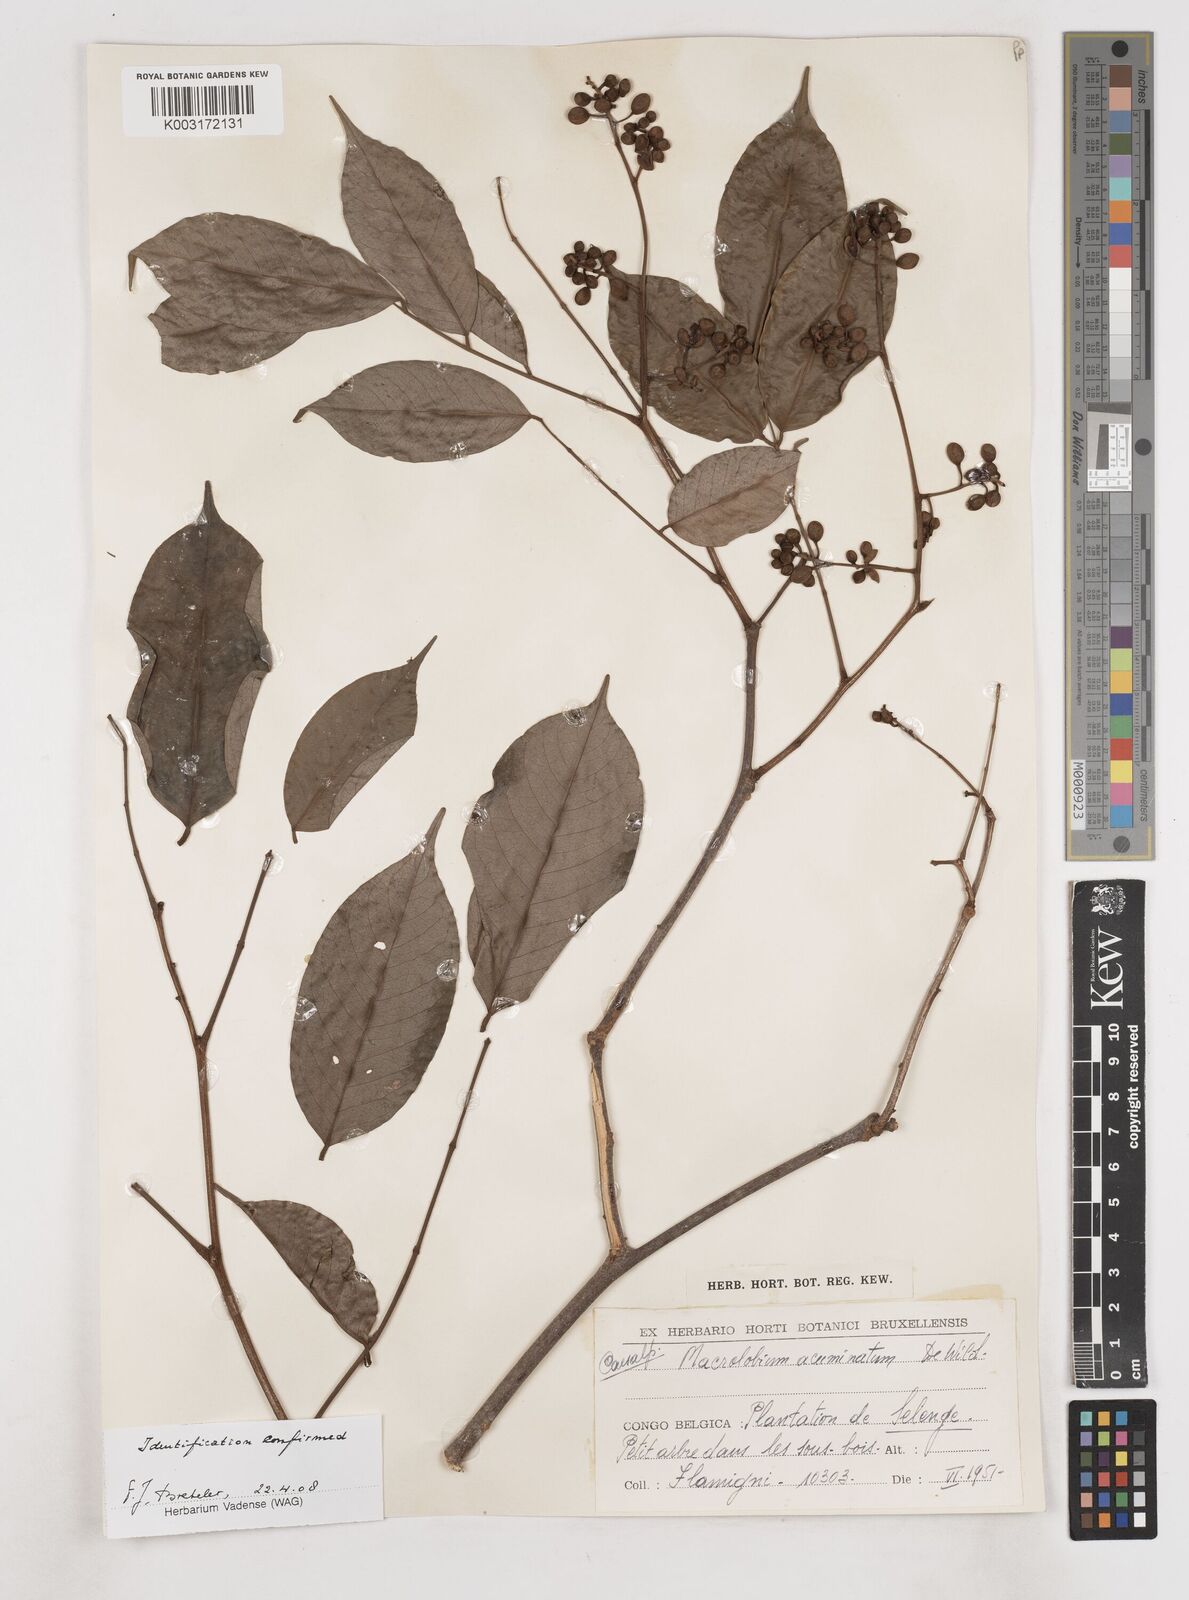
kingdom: Plantae
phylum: Tracheophyta
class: Magnoliopsida
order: Fabales
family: Fabaceae
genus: Anthonotha
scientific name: Anthonotha acuminata
